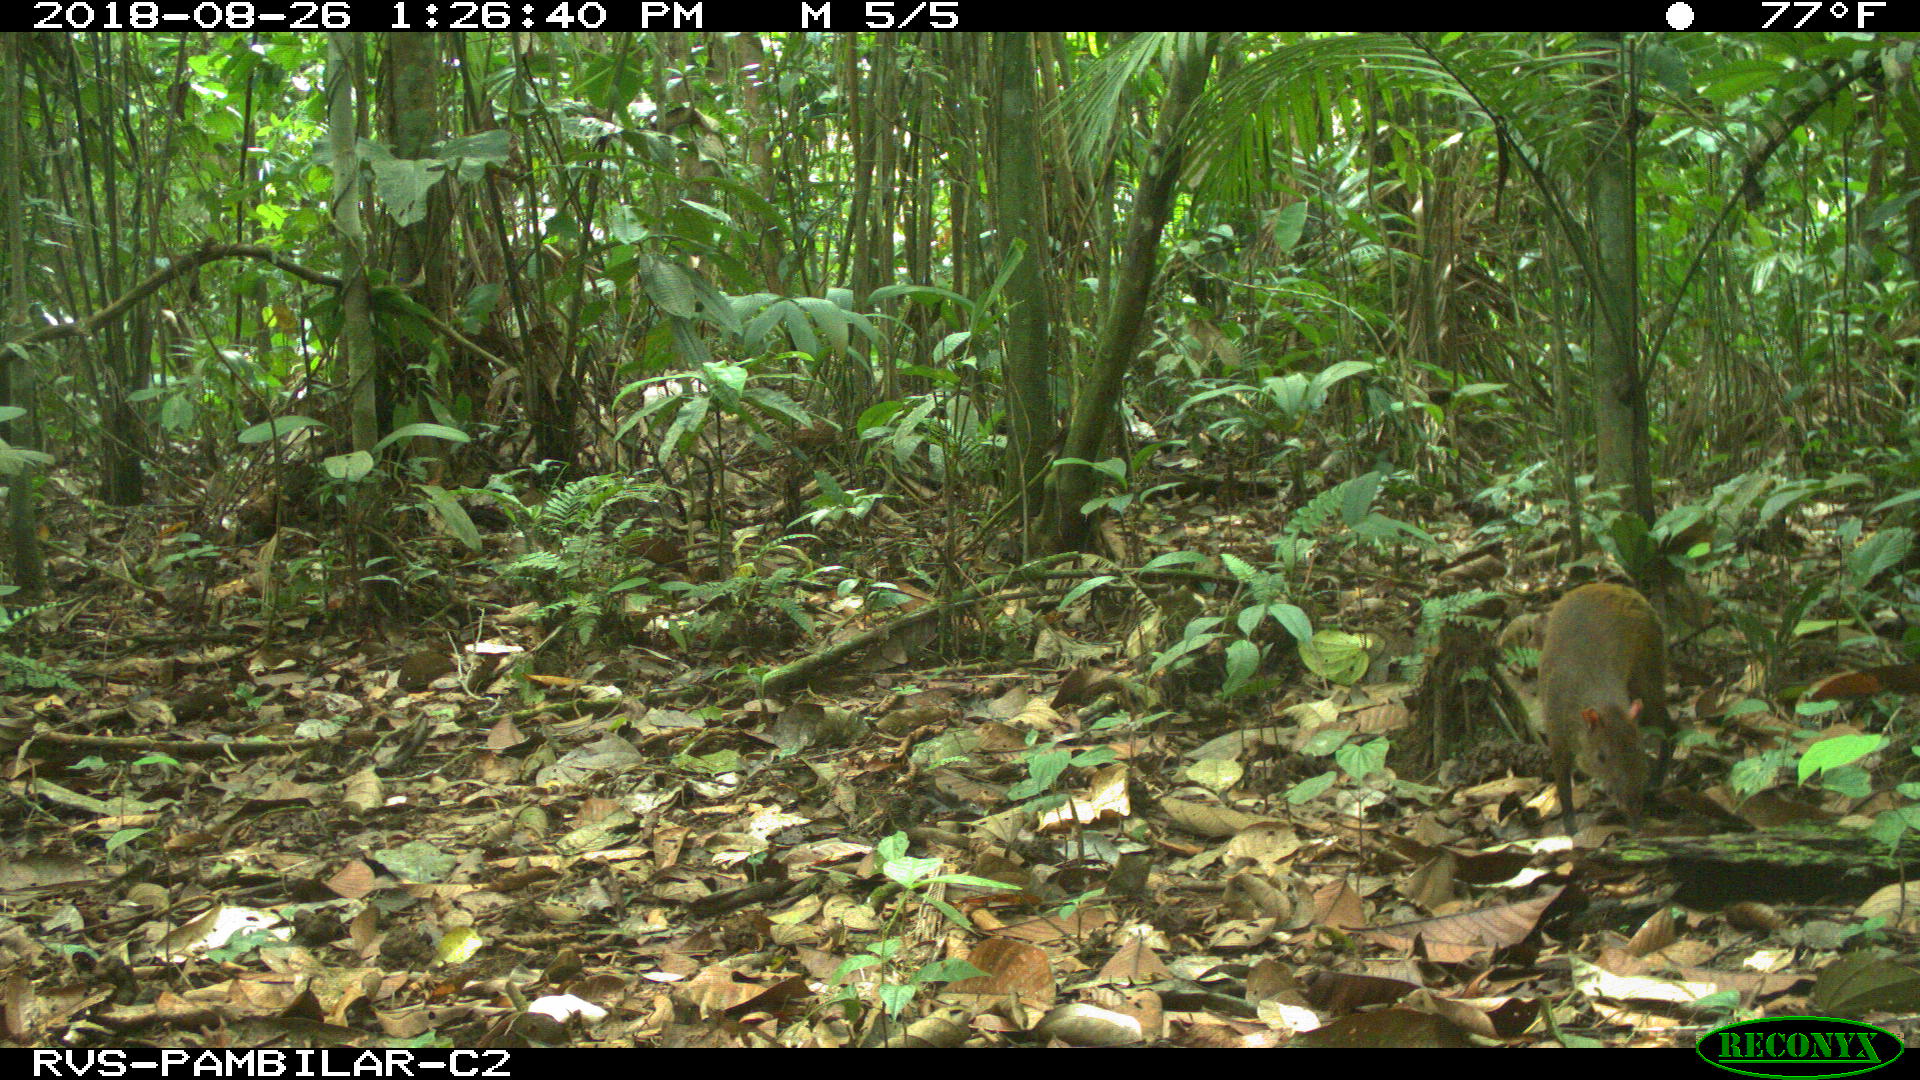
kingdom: Animalia
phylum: Chordata
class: Mammalia
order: Rodentia
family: Dasyproctidae
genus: Dasyprocta
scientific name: Dasyprocta punctata
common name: Central american agouti
